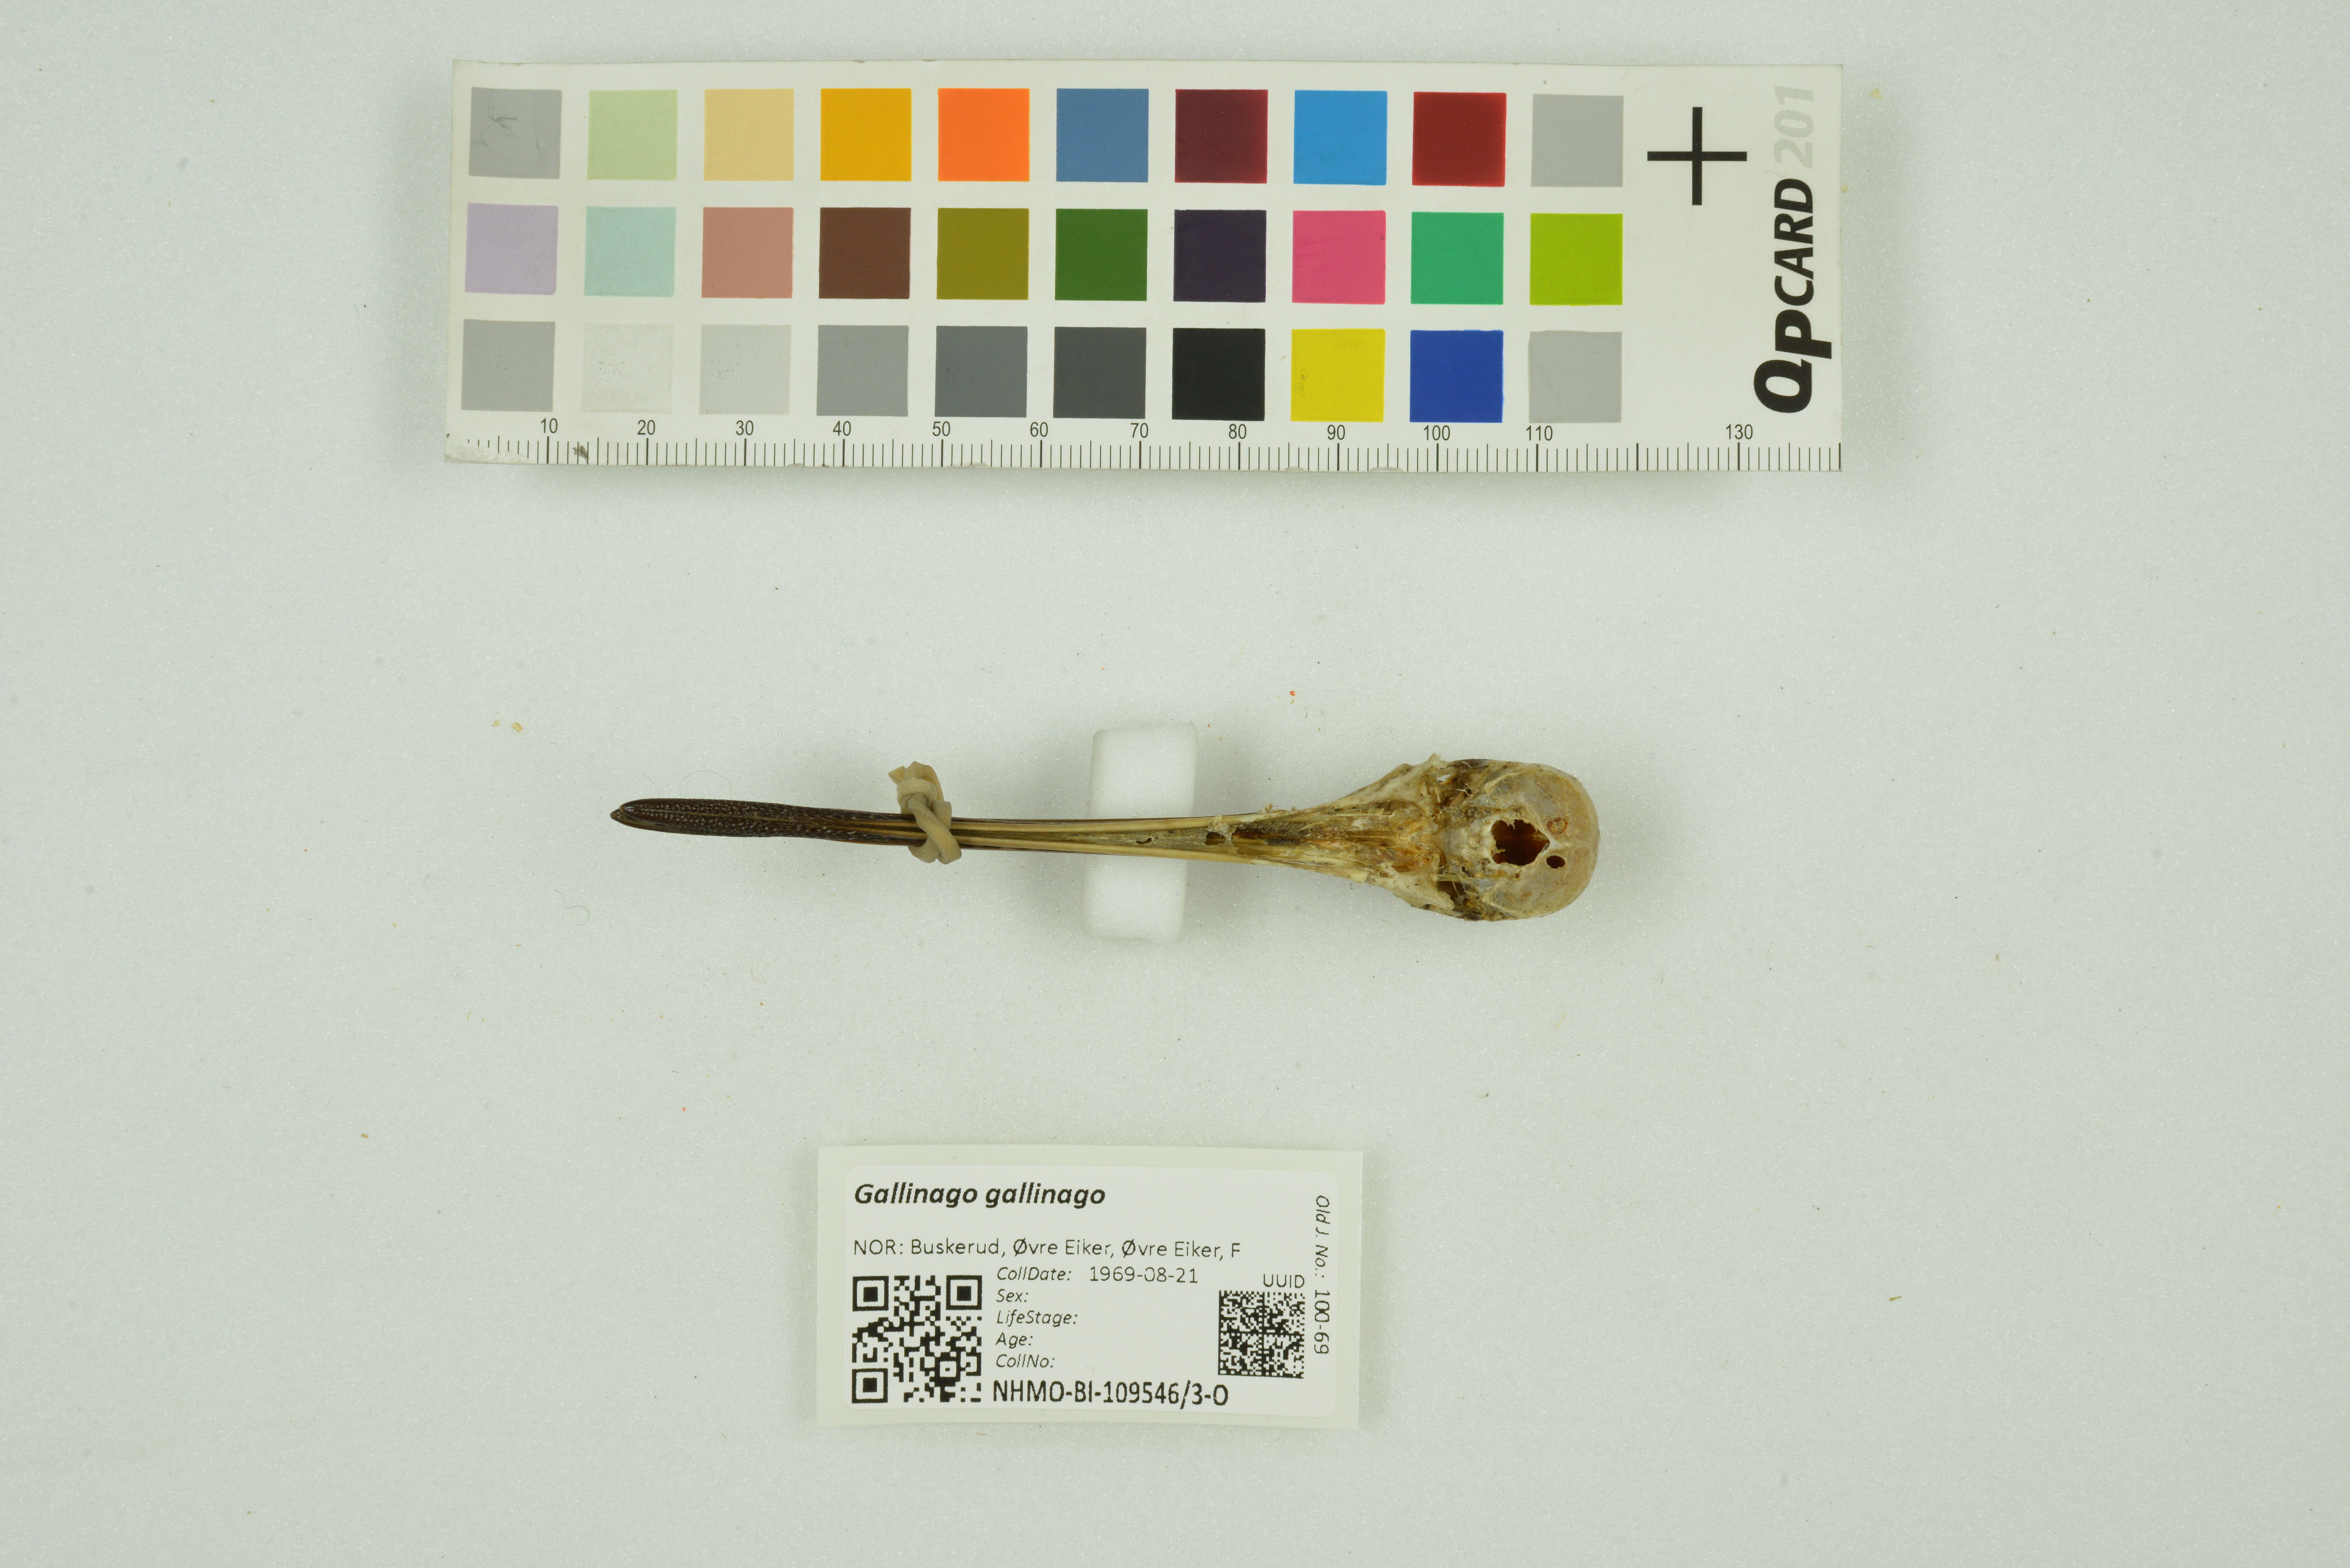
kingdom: Animalia
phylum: Chordata
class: Aves
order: Charadriiformes
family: Scolopacidae
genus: Gallinago
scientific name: Gallinago gallinago
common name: Common snipe
